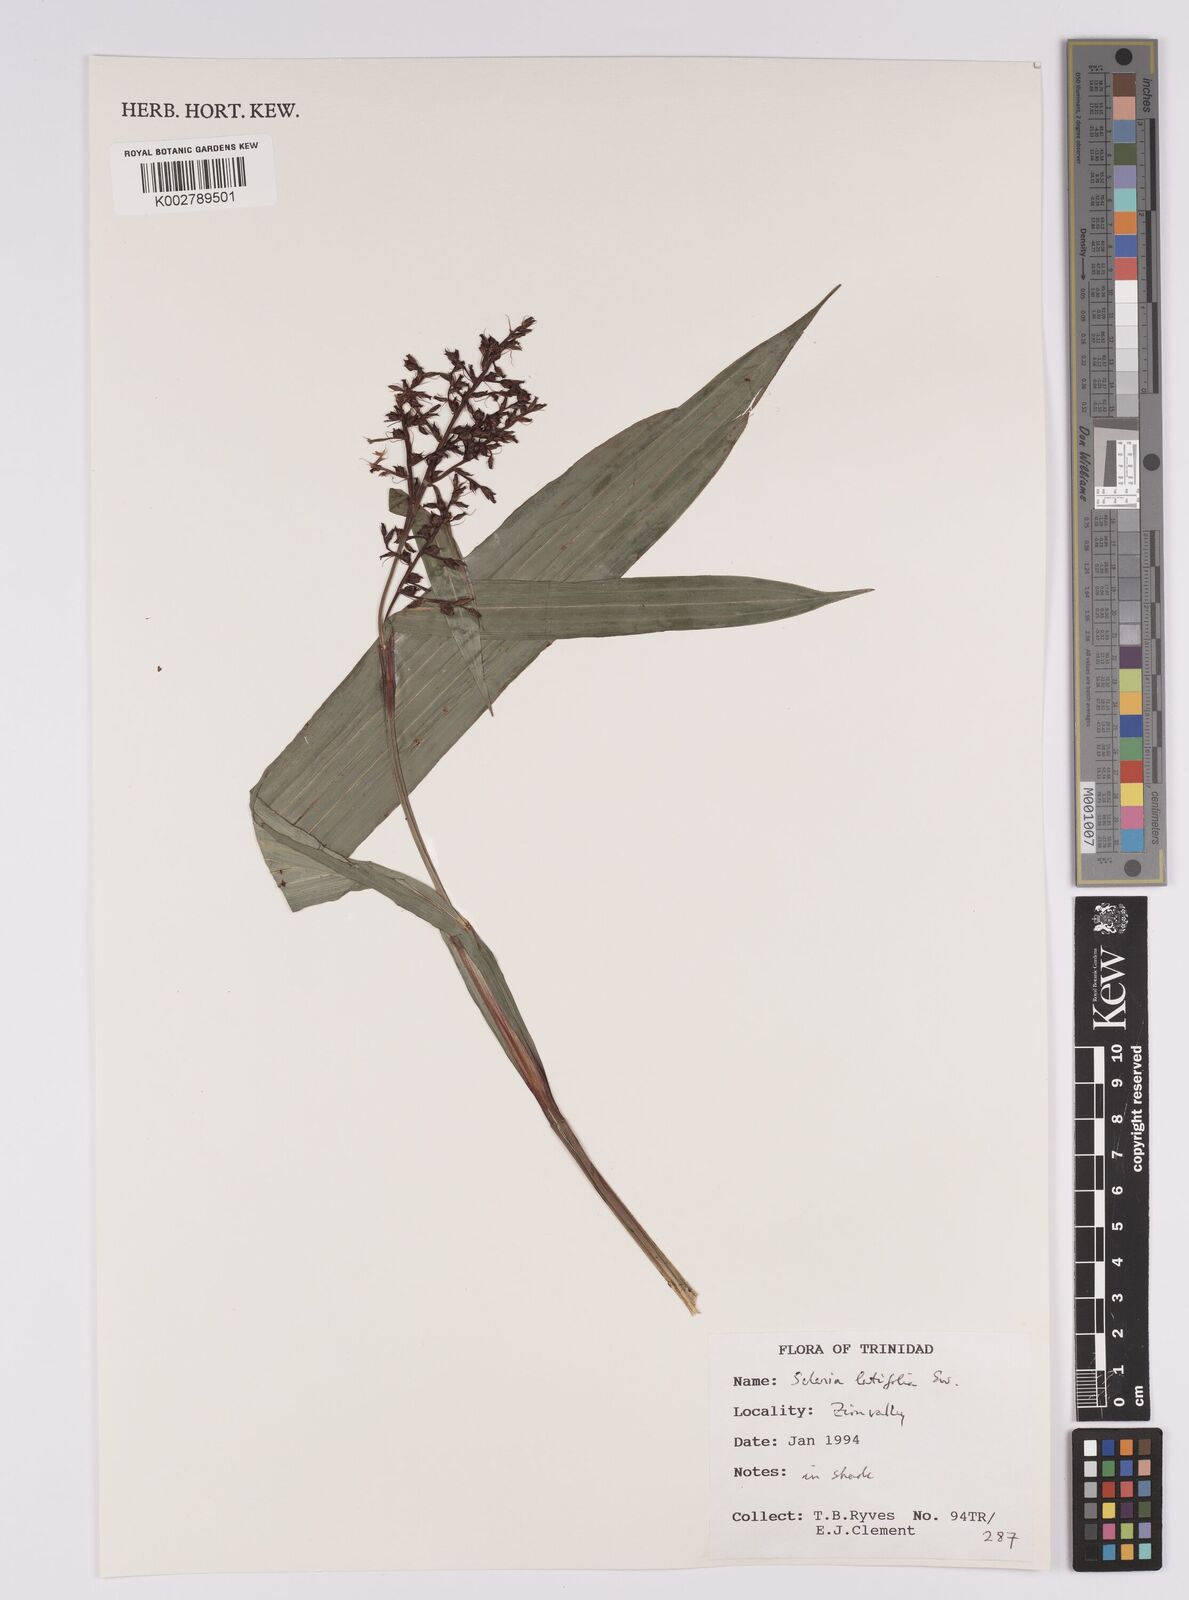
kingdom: Plantae
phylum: Tracheophyta
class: Liliopsida
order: Poales
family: Cyperaceae
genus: Scleria
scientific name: Scleria latifolia
